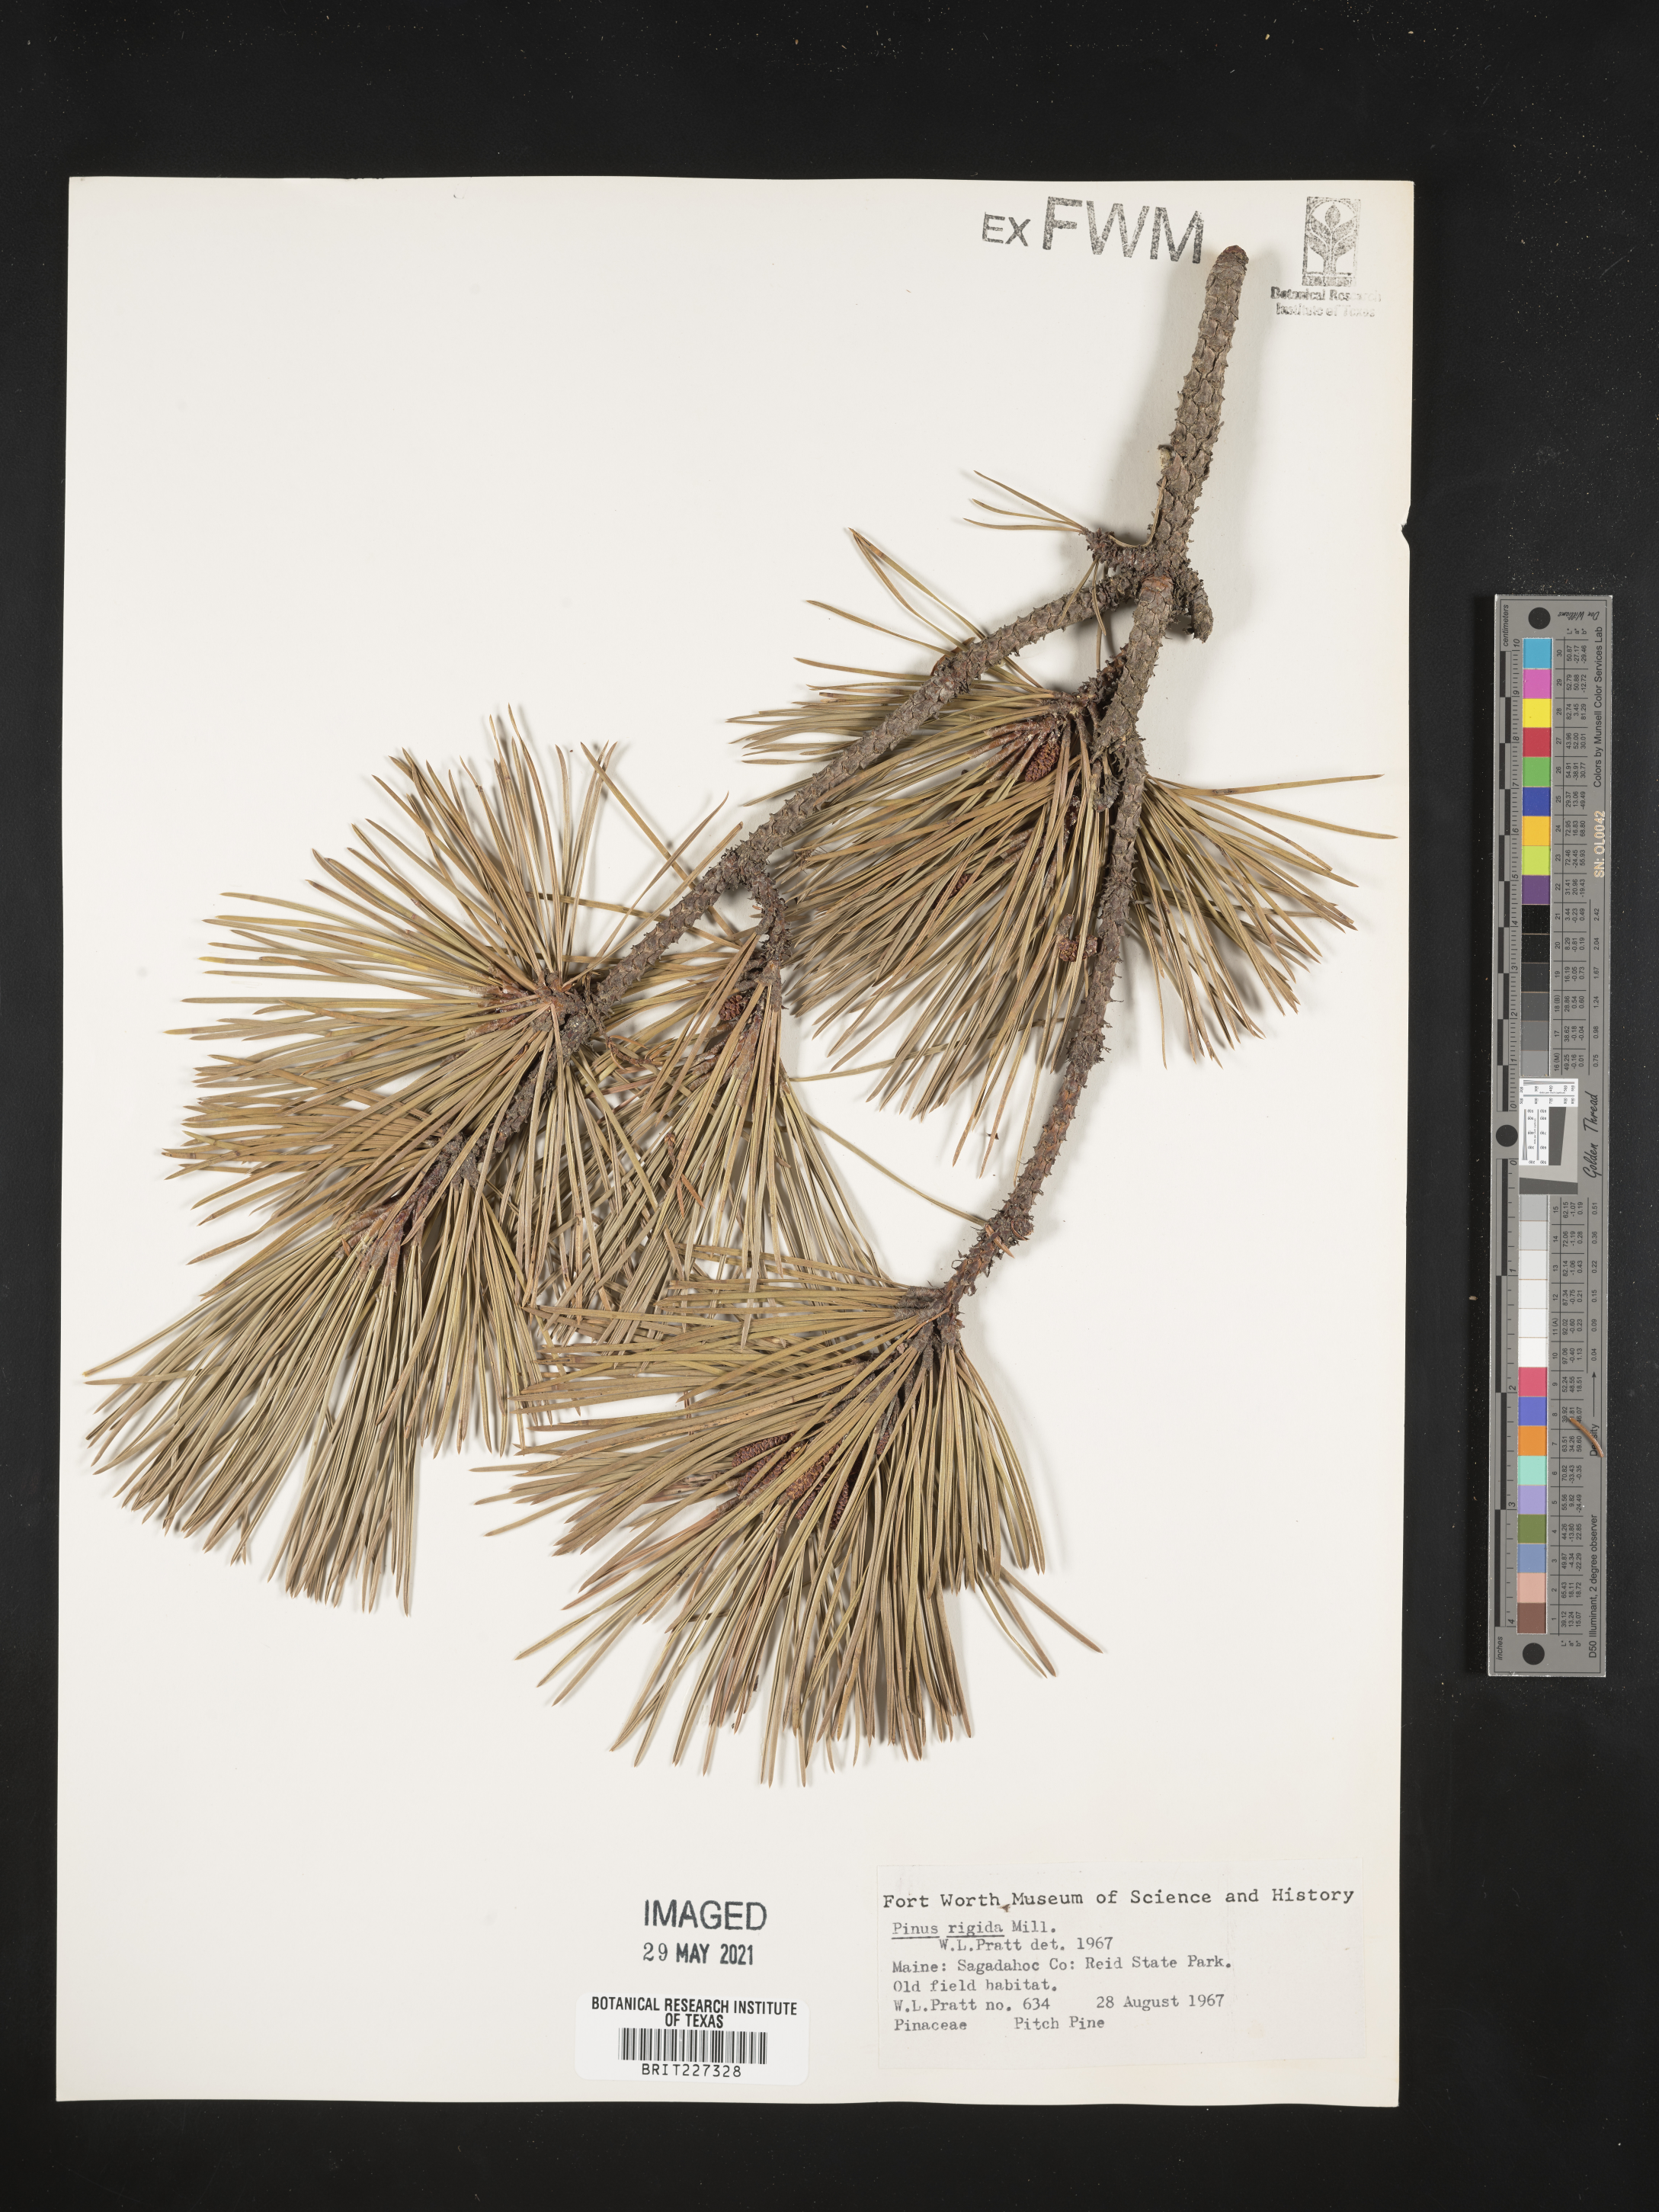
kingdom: Plantae
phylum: Tracheophyta
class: Pinopsida
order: Pinales
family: Pinaceae
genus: Pinus
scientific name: Pinus rigida
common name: Pitch pine
